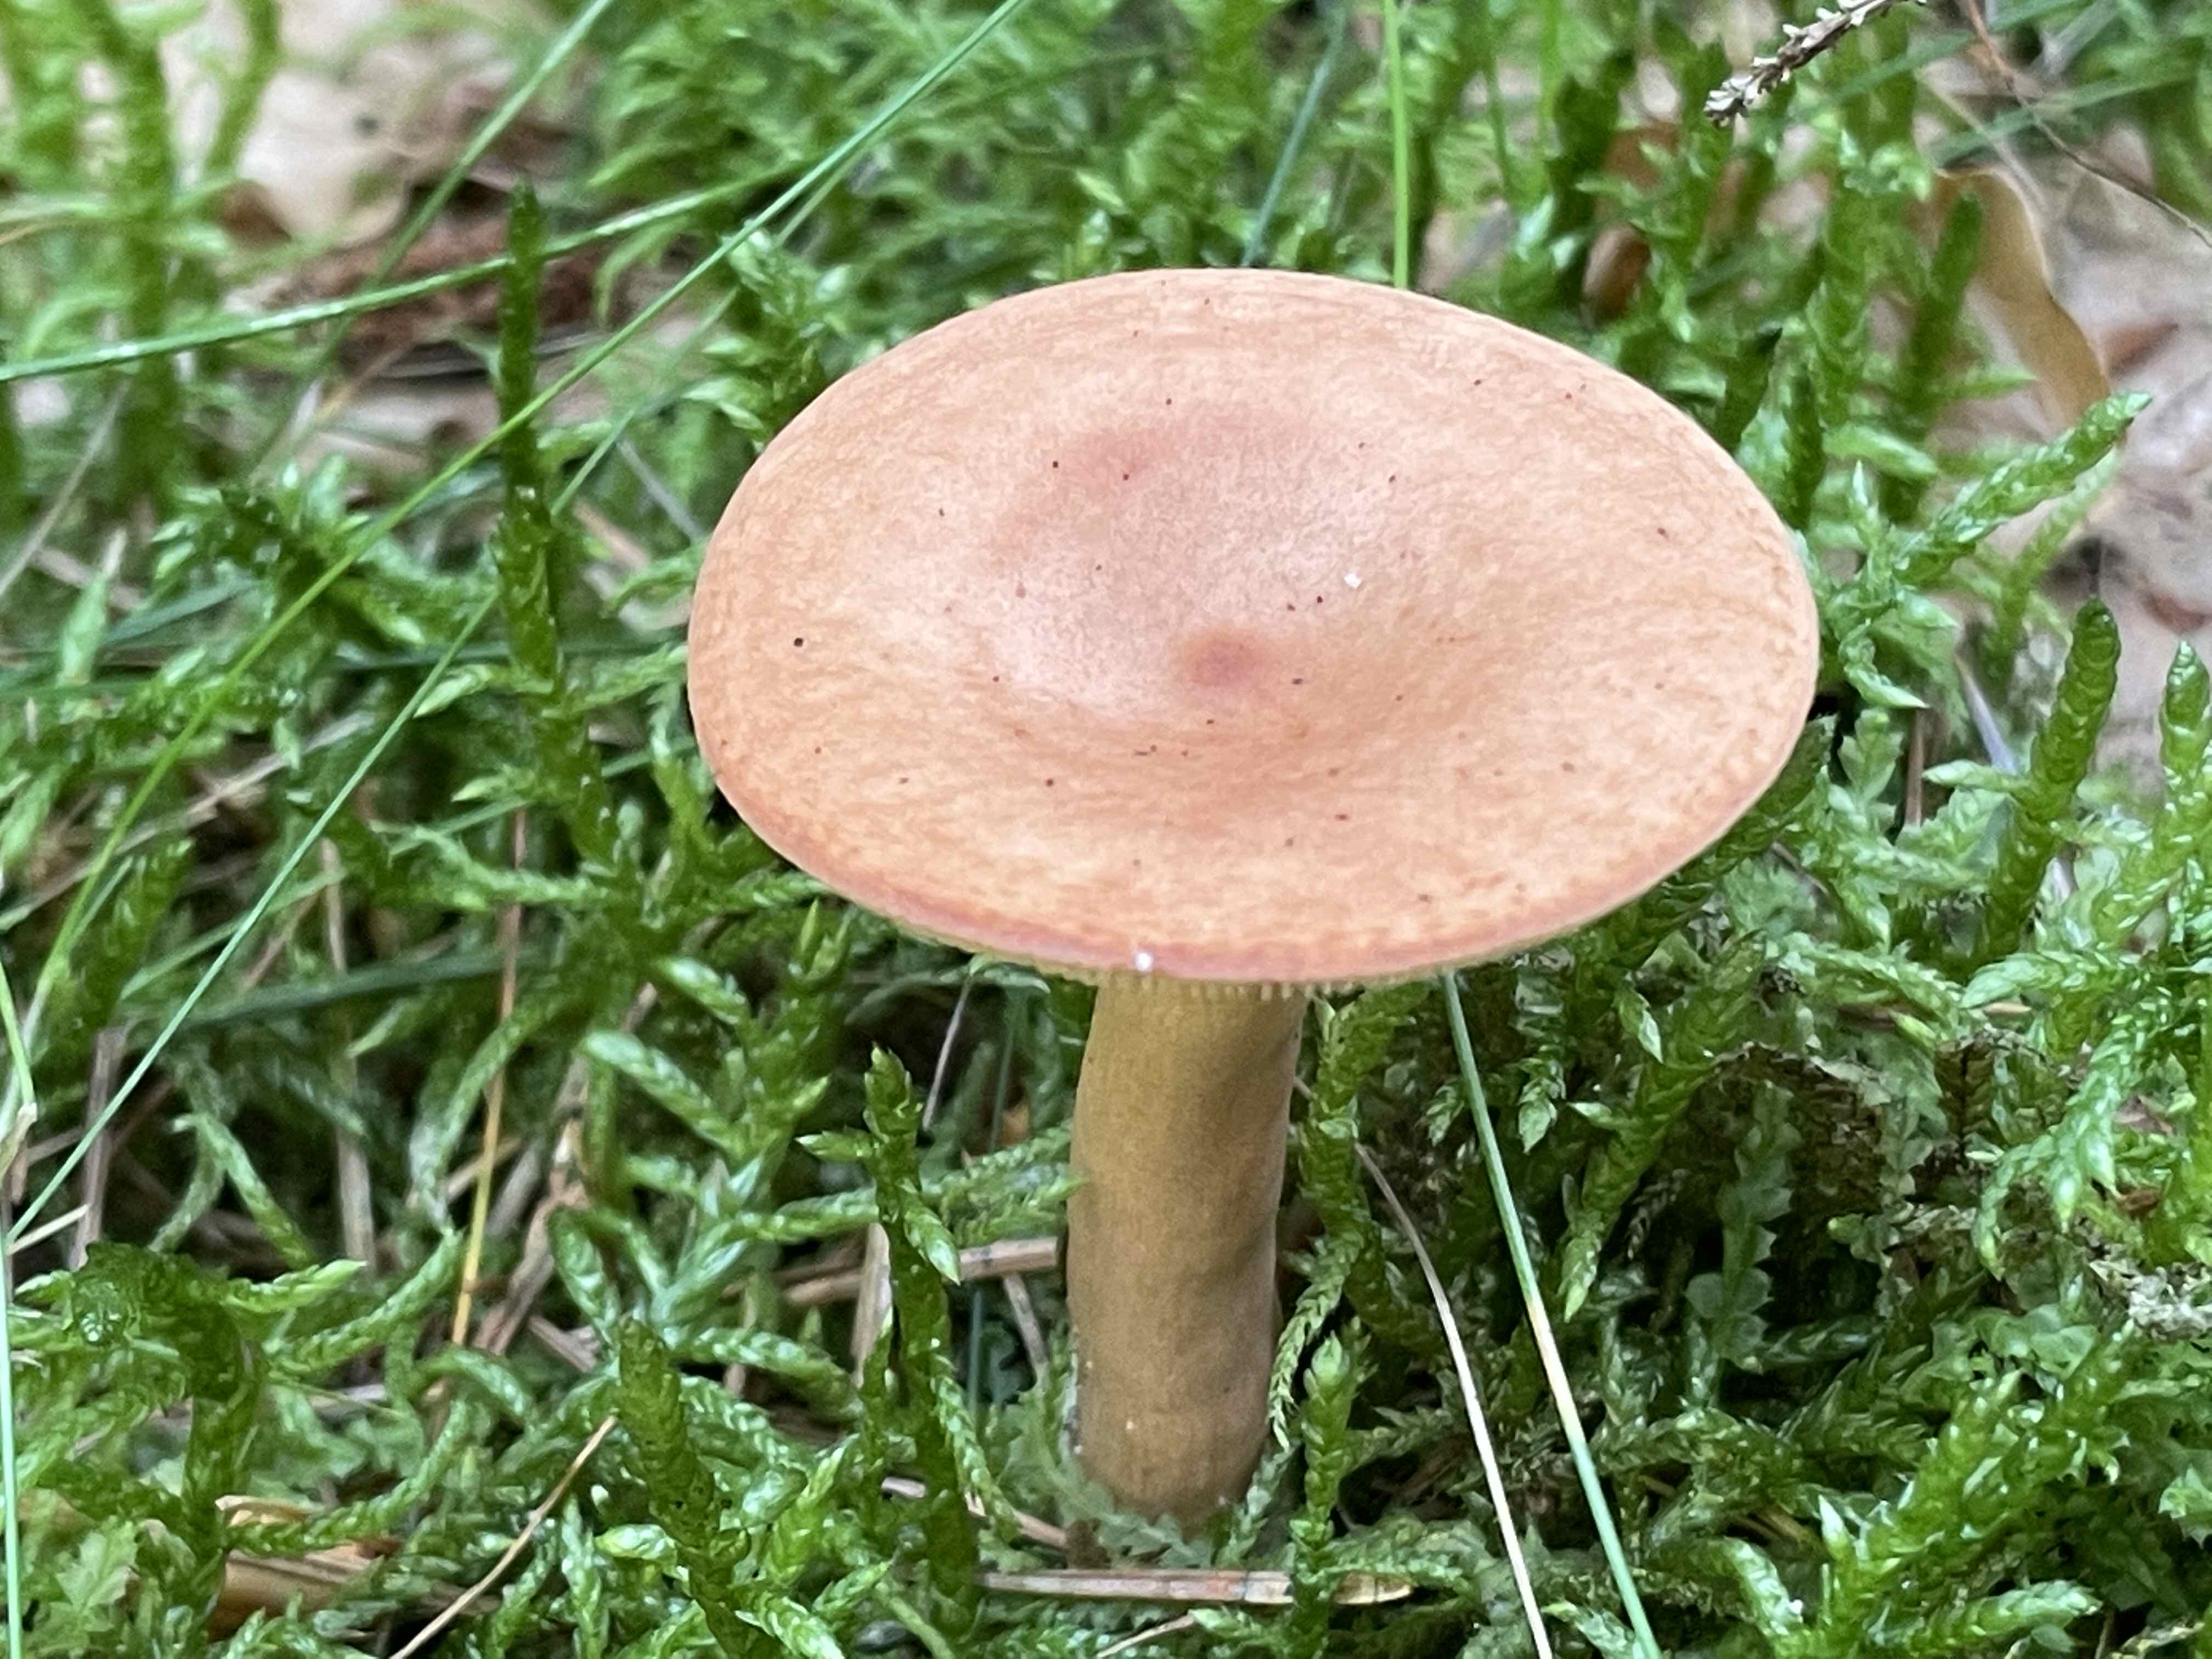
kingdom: Fungi
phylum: Basidiomycota
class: Agaricomycetes
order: Russulales
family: Russulaceae
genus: Lactarius
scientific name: Lactarius tabidus
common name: rynket mælkehat
